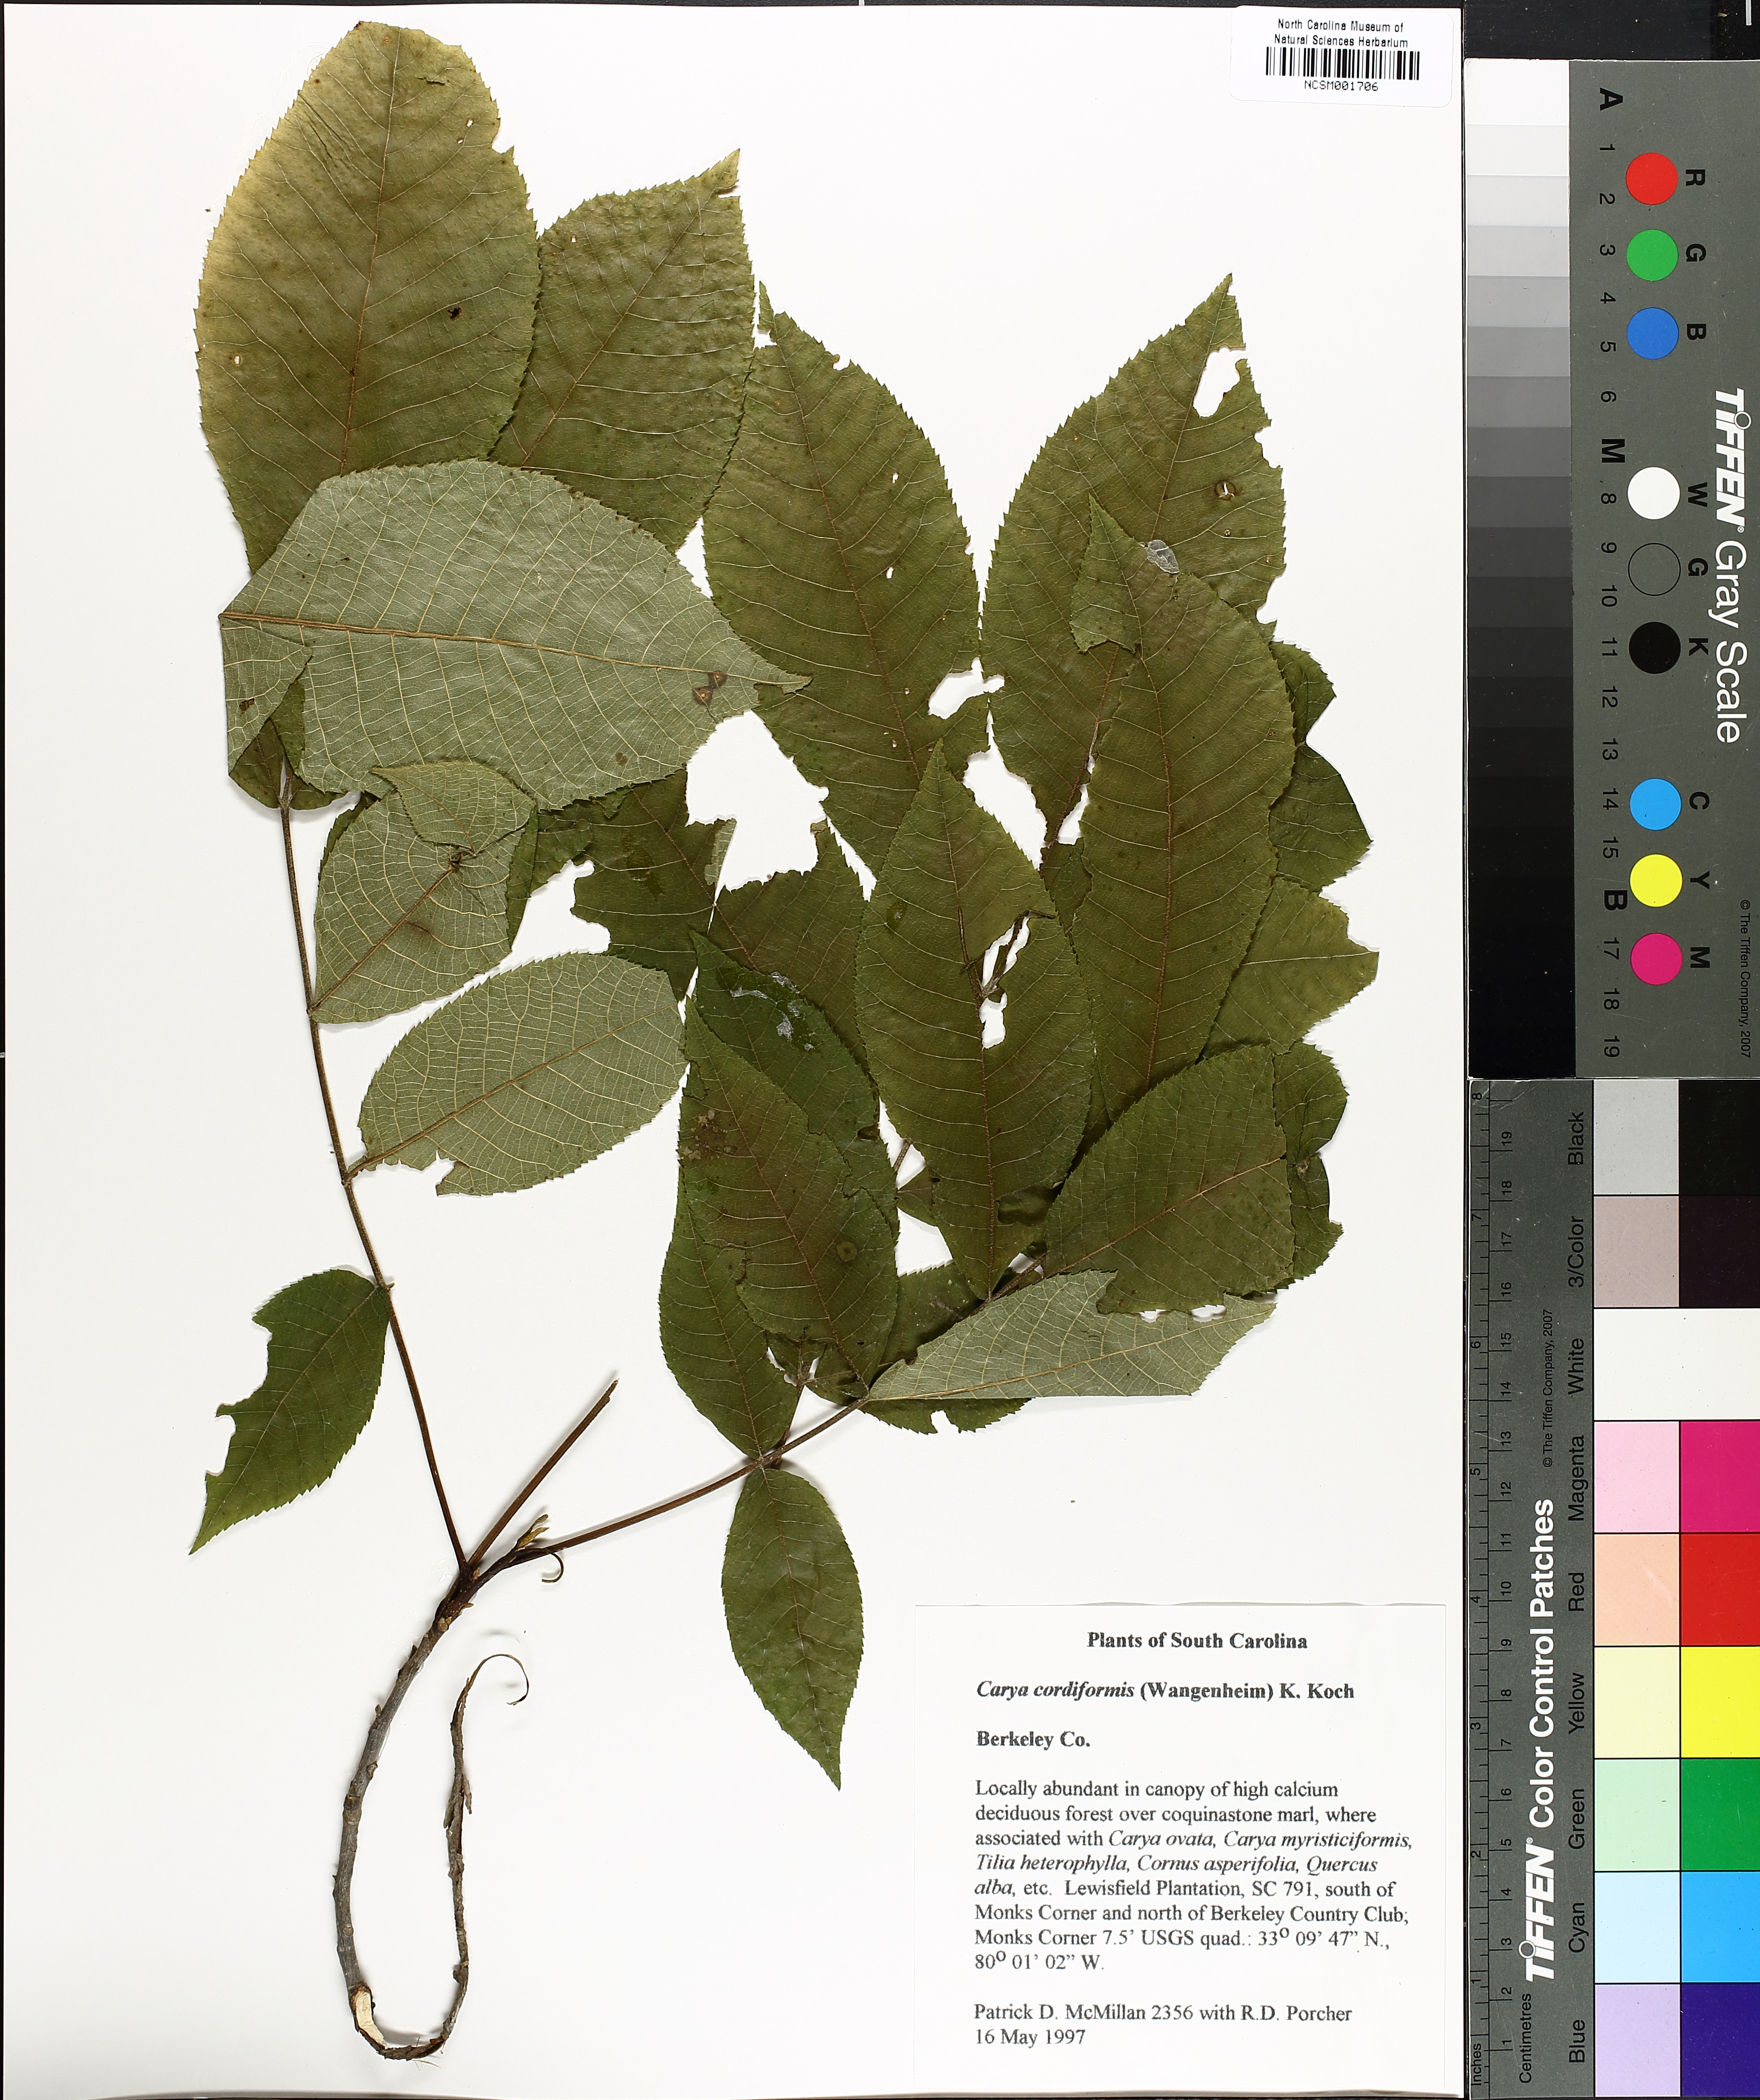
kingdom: Plantae
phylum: Tracheophyta
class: Magnoliopsida
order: Fagales
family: Juglandaceae
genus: Carya
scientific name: Carya cordiformis
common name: Bitternut hickory
